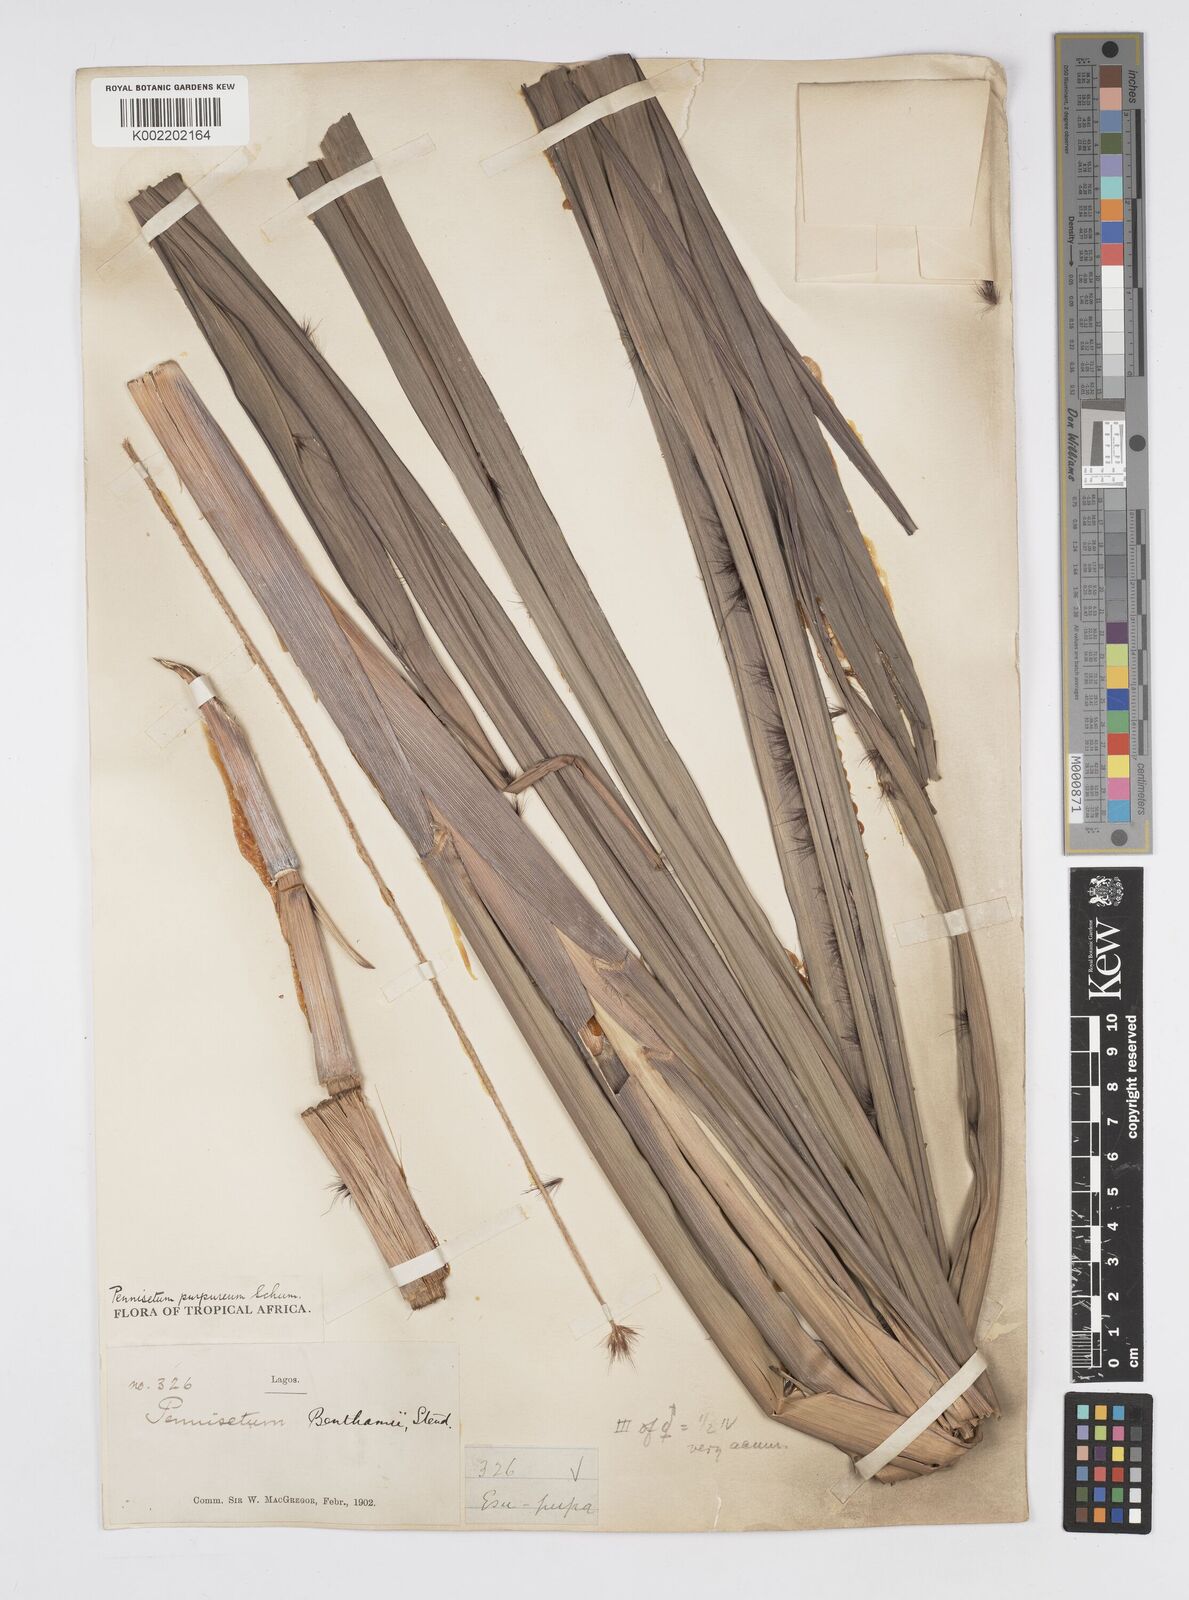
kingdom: Plantae
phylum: Tracheophyta
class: Liliopsida
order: Poales
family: Poaceae
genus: Cenchrus
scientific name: Cenchrus purpureus
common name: Elephant grass
